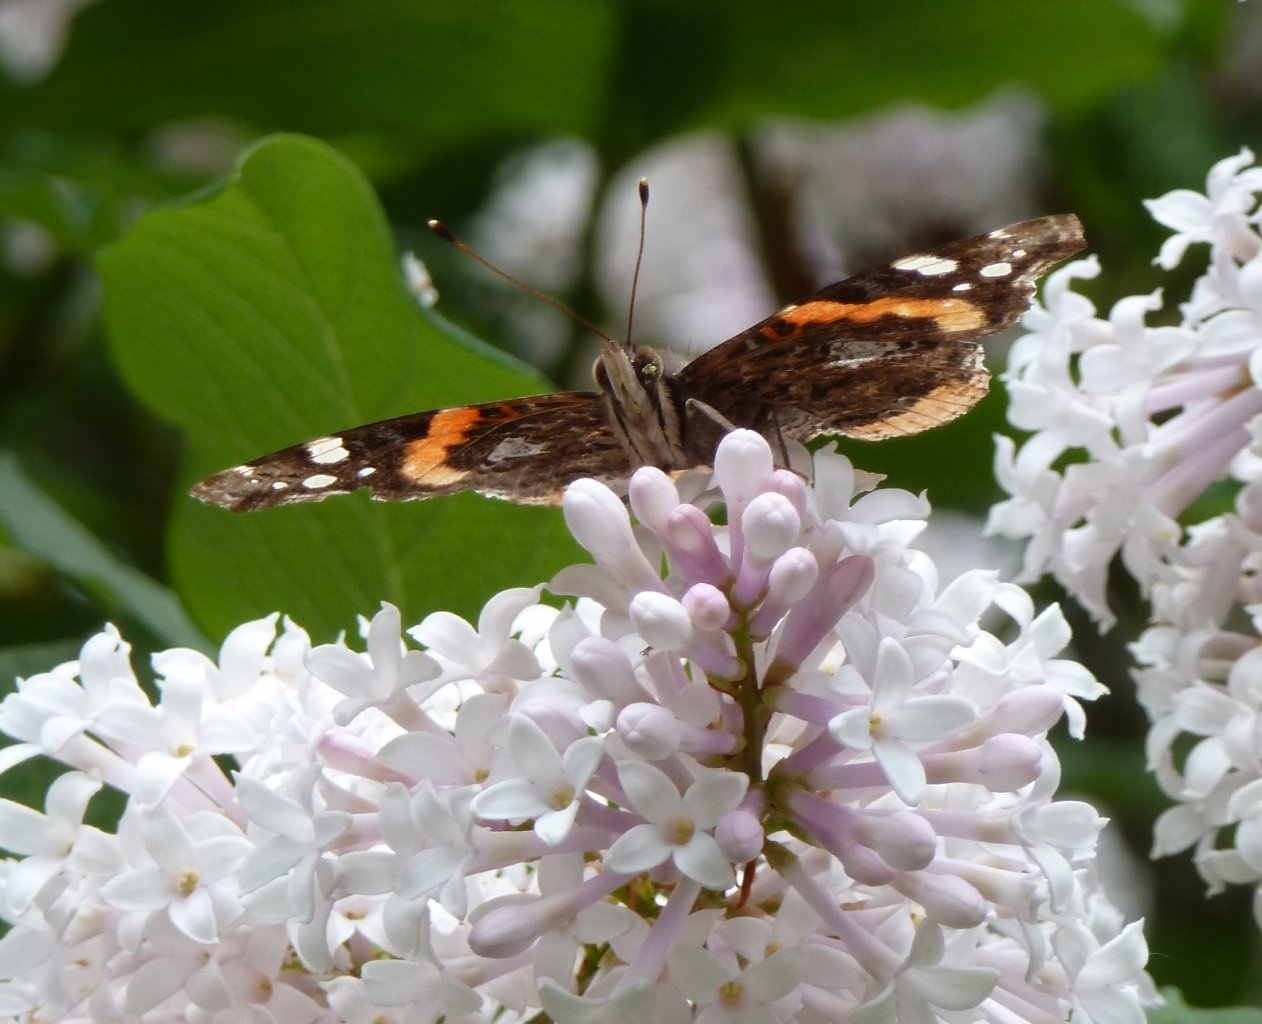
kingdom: Animalia
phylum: Arthropoda
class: Insecta
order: Lepidoptera
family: Nymphalidae
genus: Vanessa
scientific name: Vanessa atalanta
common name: Red Admiral
